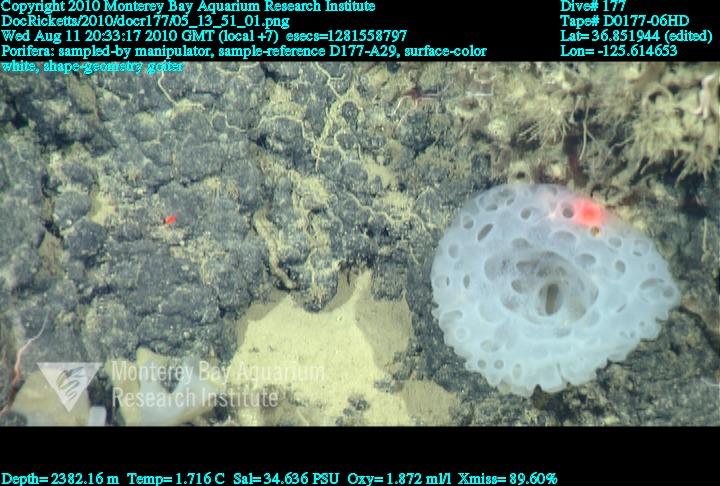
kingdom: Animalia
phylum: Porifera
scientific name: Porifera
